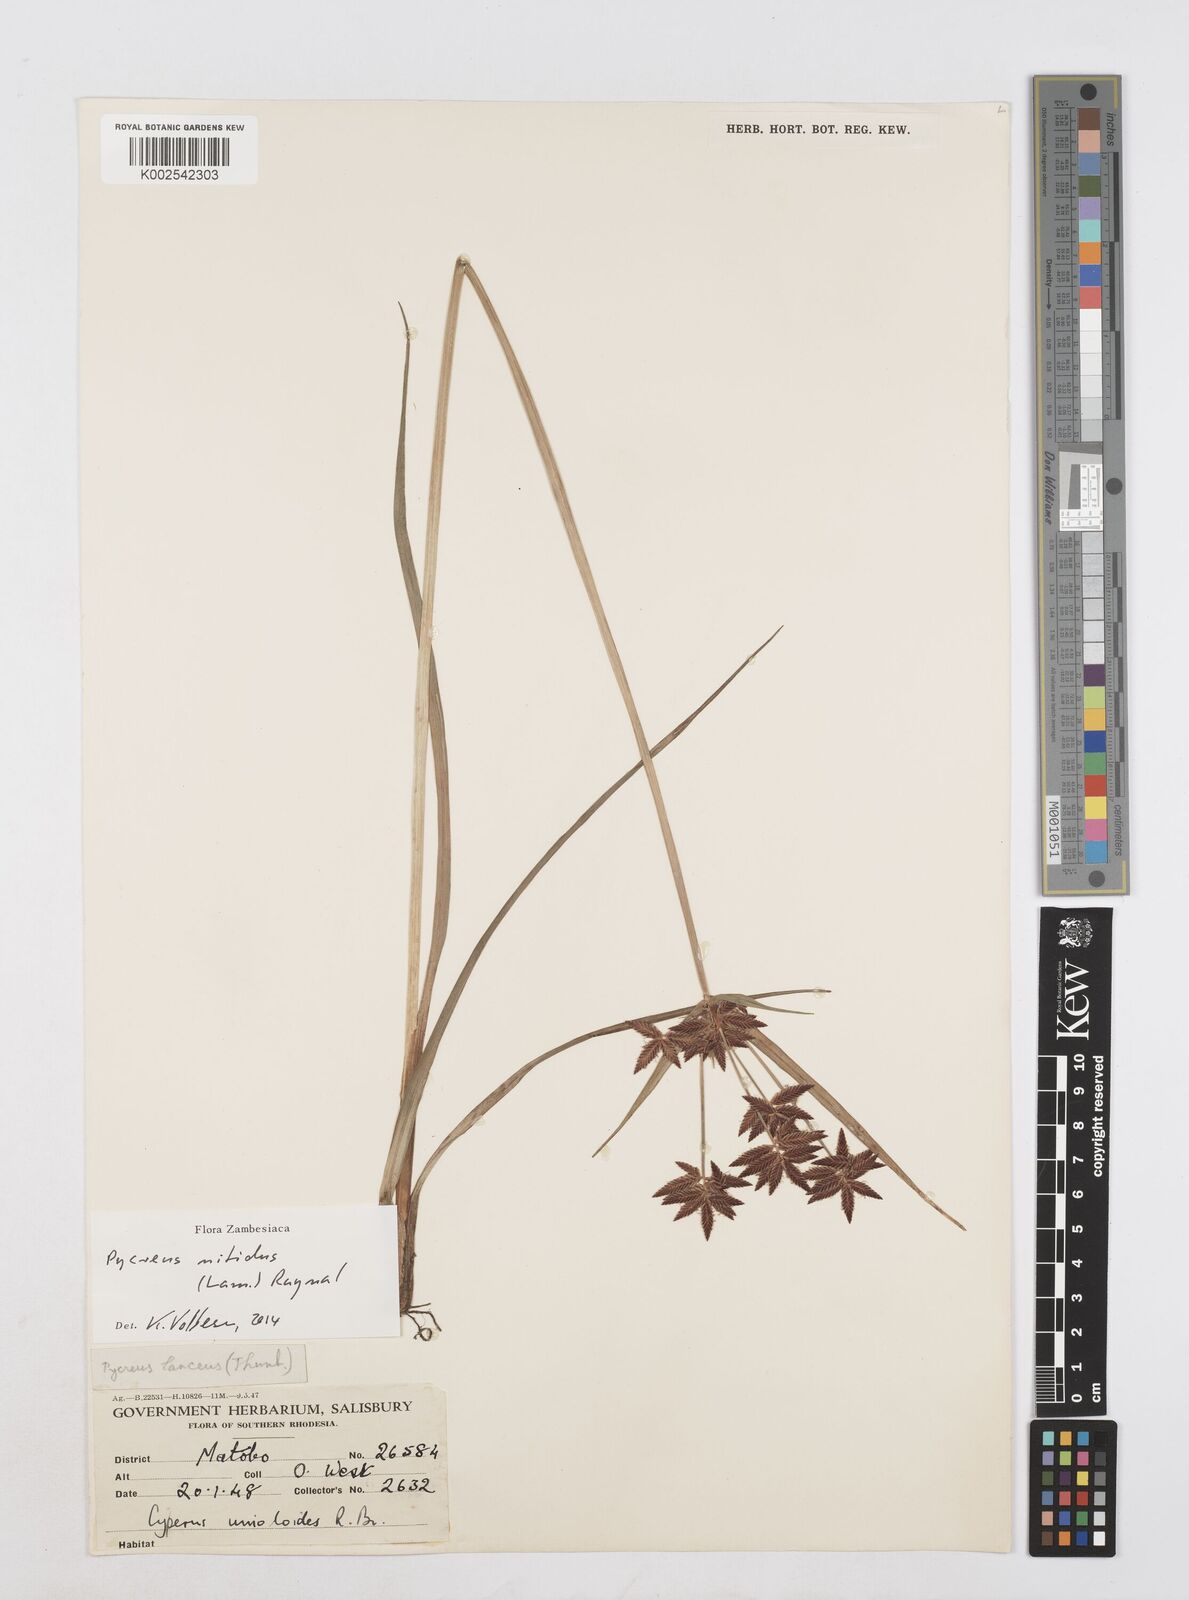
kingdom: Plantae
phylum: Tracheophyta
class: Liliopsida
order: Poales
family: Cyperaceae
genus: Cyperus
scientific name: Cyperus nitidus
